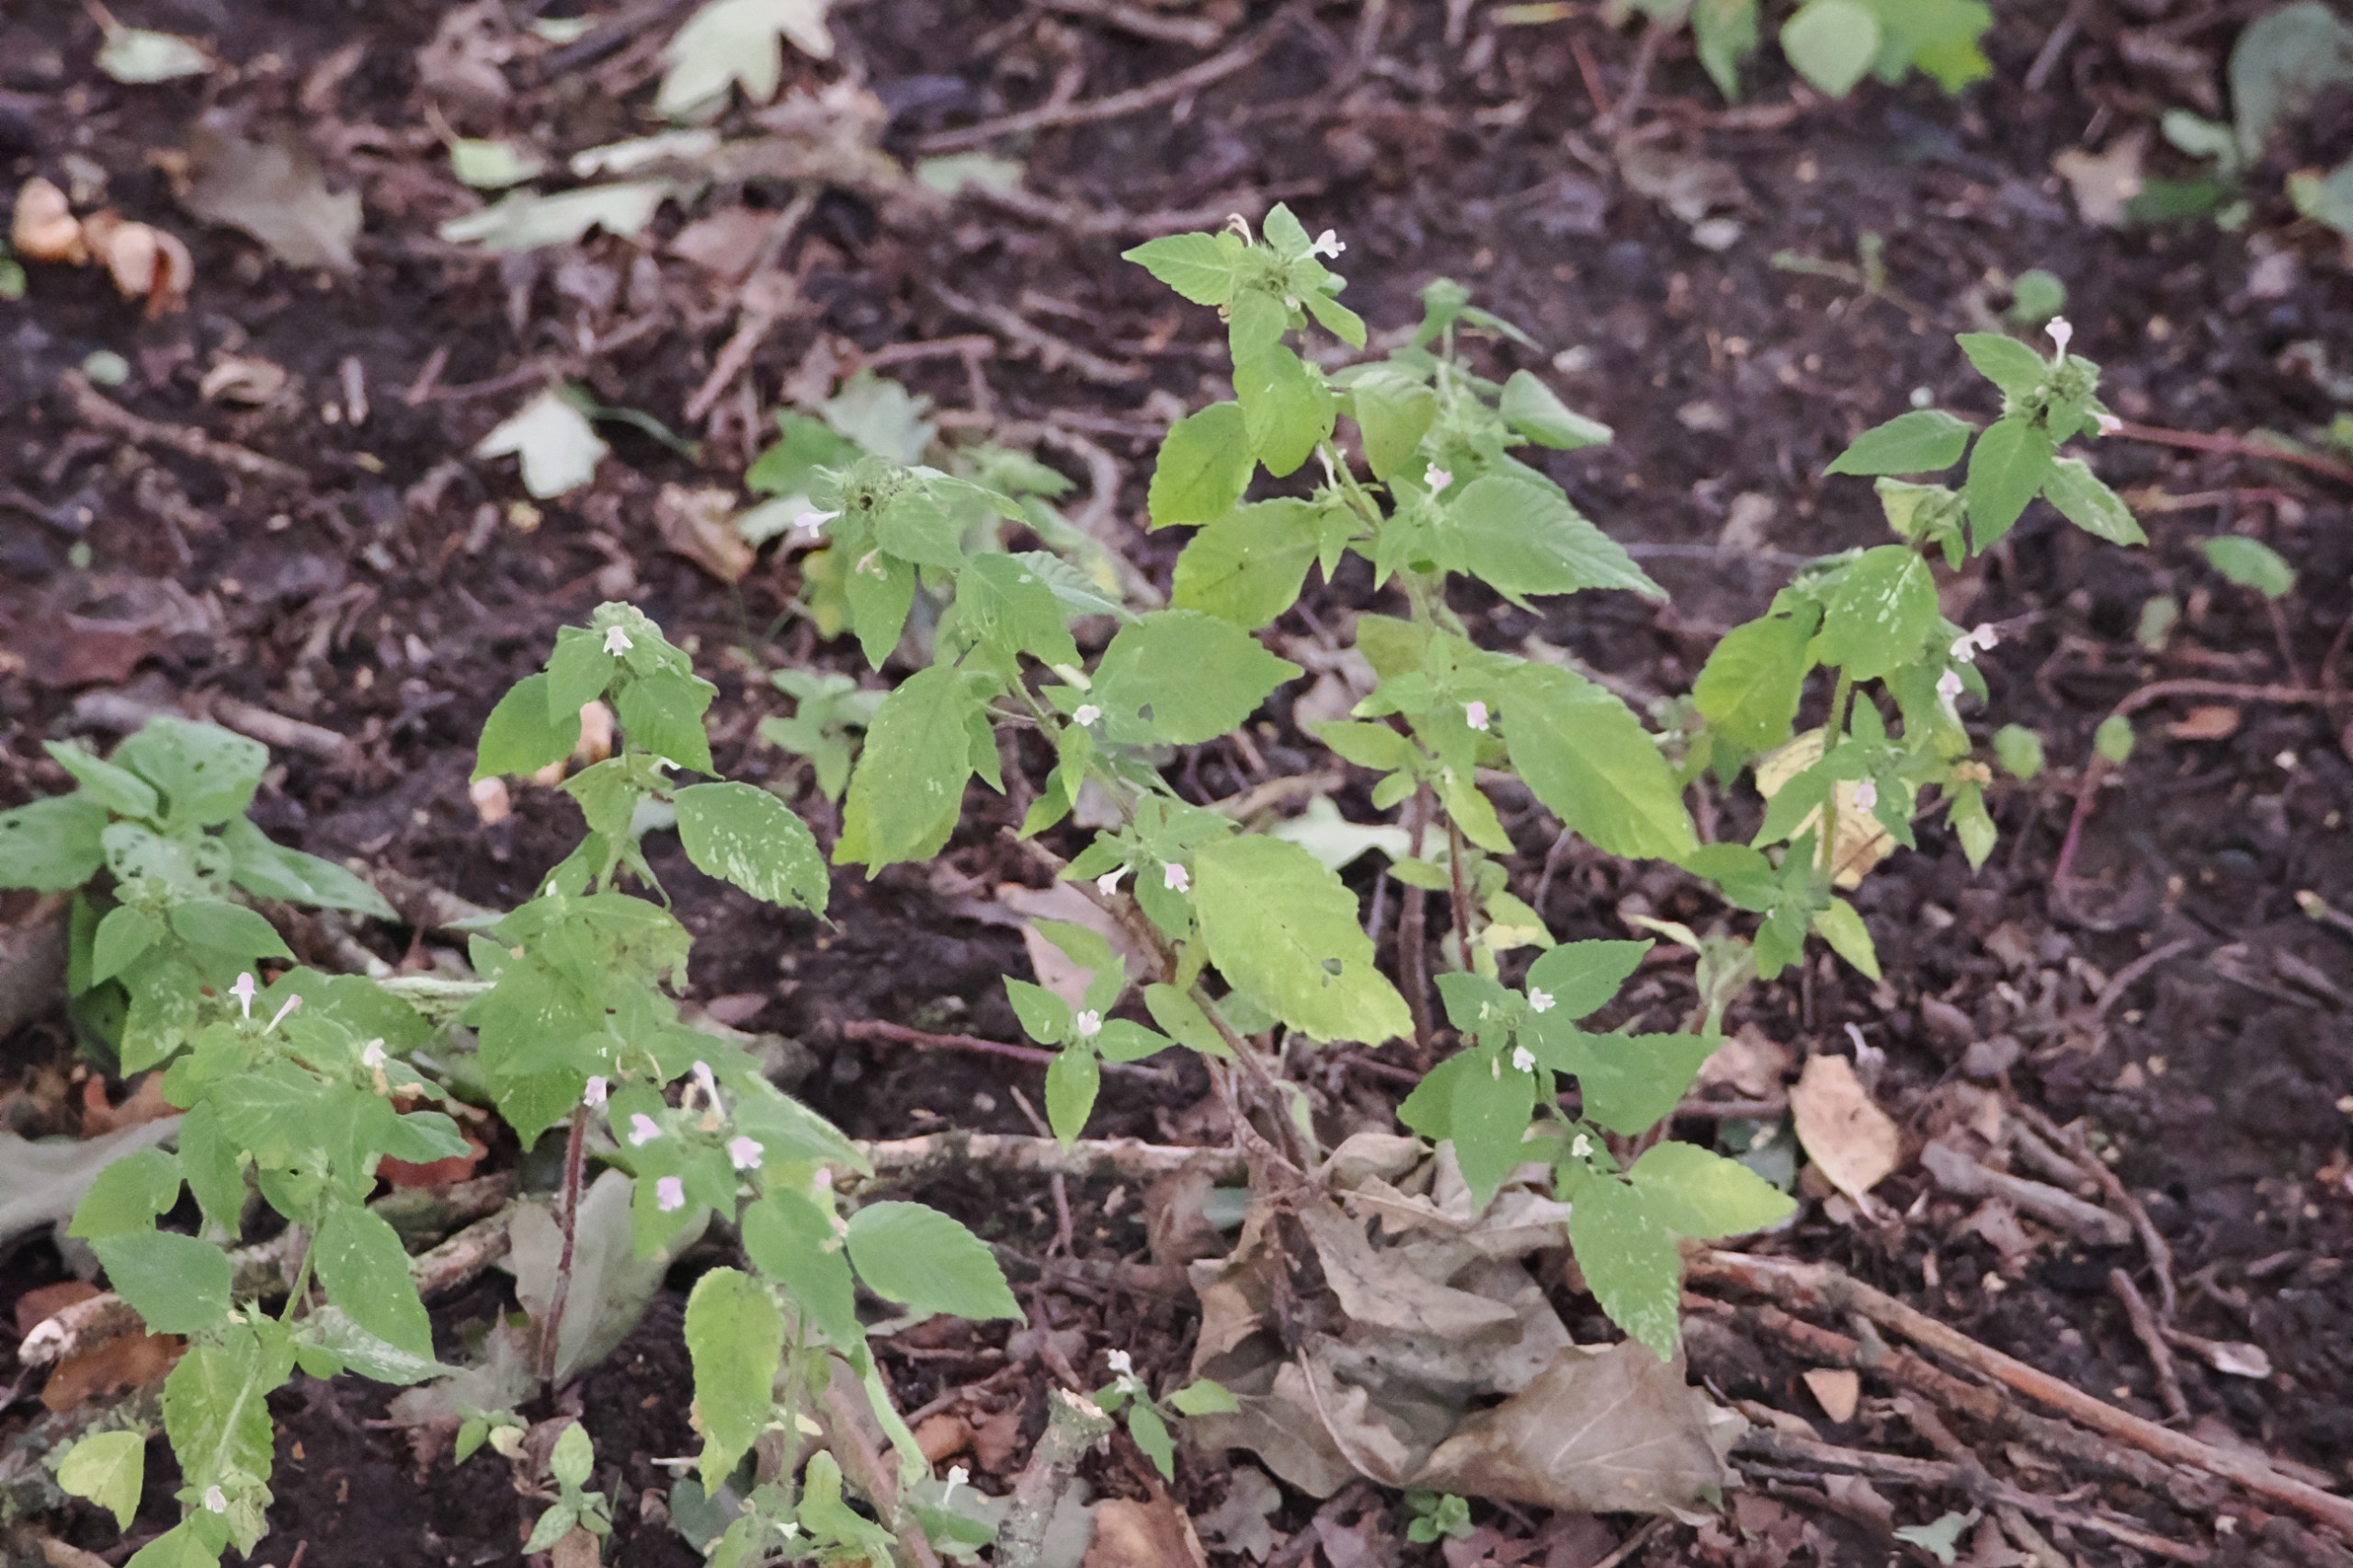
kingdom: Plantae
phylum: Tracheophyta
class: Magnoliopsida
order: Lamiales
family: Lamiaceae
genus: Galeopsis
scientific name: Galeopsis
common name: Hanekroslægten
